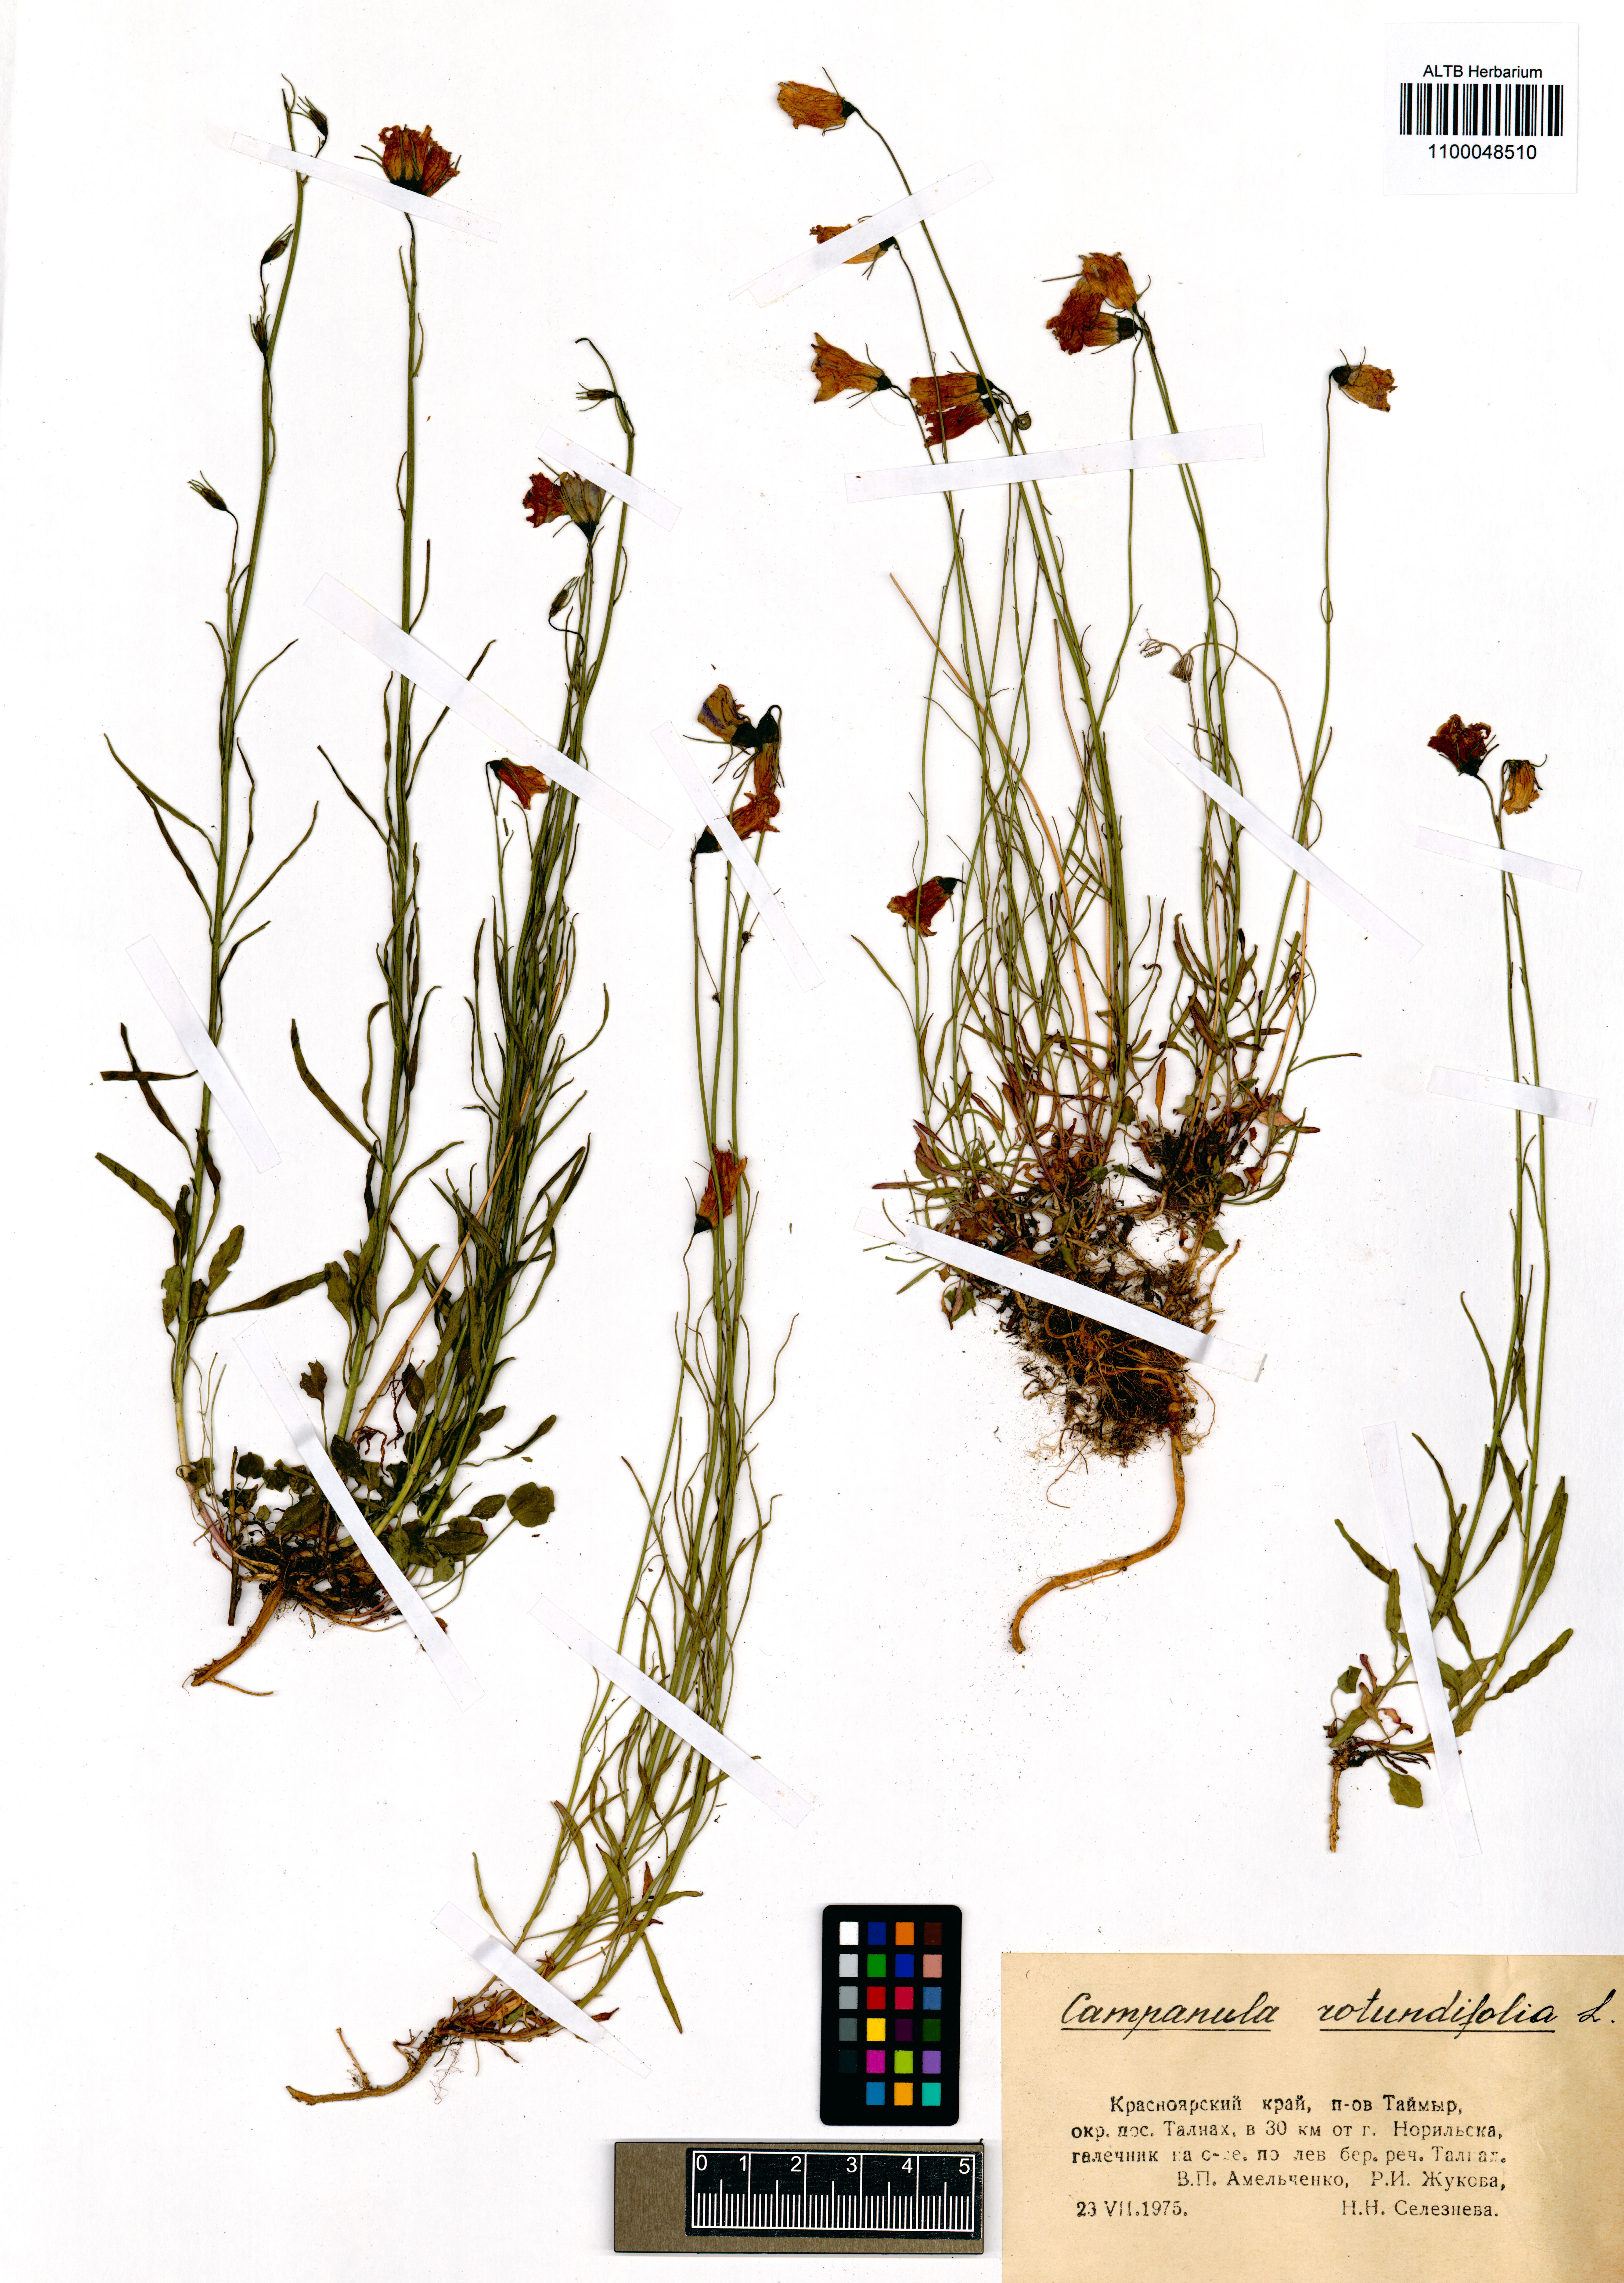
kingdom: Plantae
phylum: Tracheophyta
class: Magnoliopsida
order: Asterales
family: Campanulaceae
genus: Campanula
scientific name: Campanula rotundifolia
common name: Harebell
